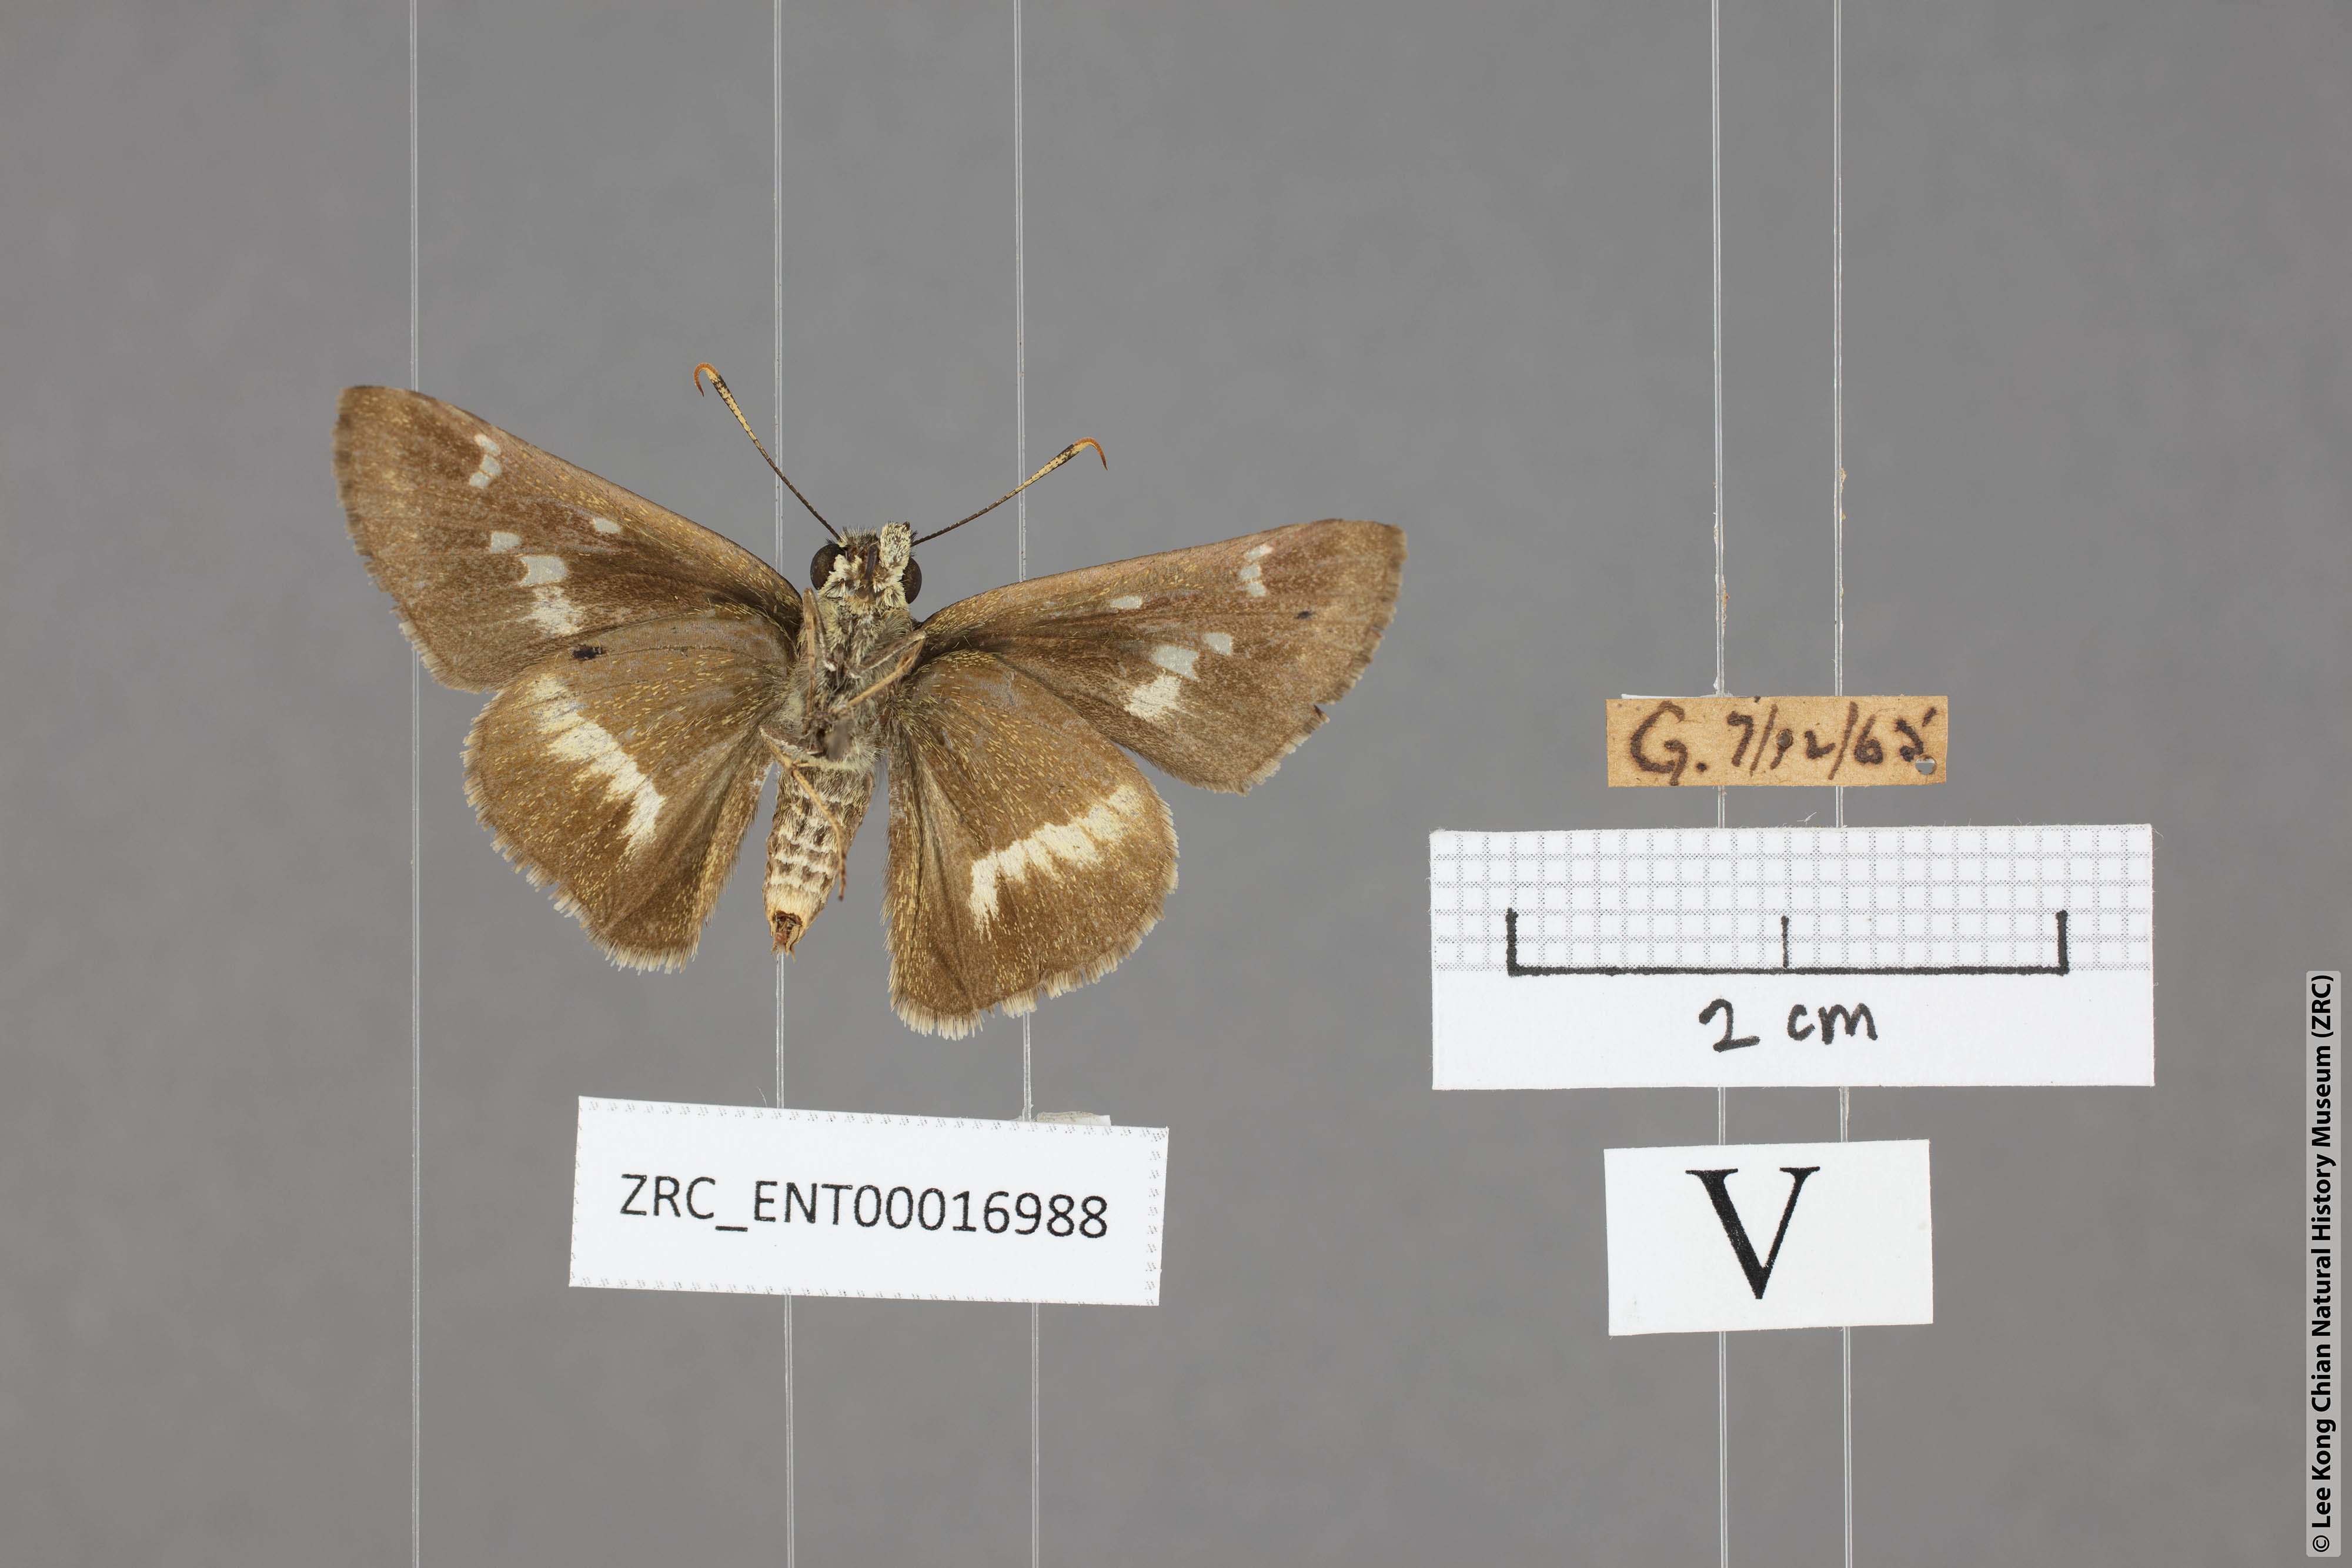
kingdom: Animalia
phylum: Arthropoda
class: Insecta
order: Lepidoptera
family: Hesperiidae
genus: Halpe
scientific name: Halpe elana
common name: Narrow-banded ace
